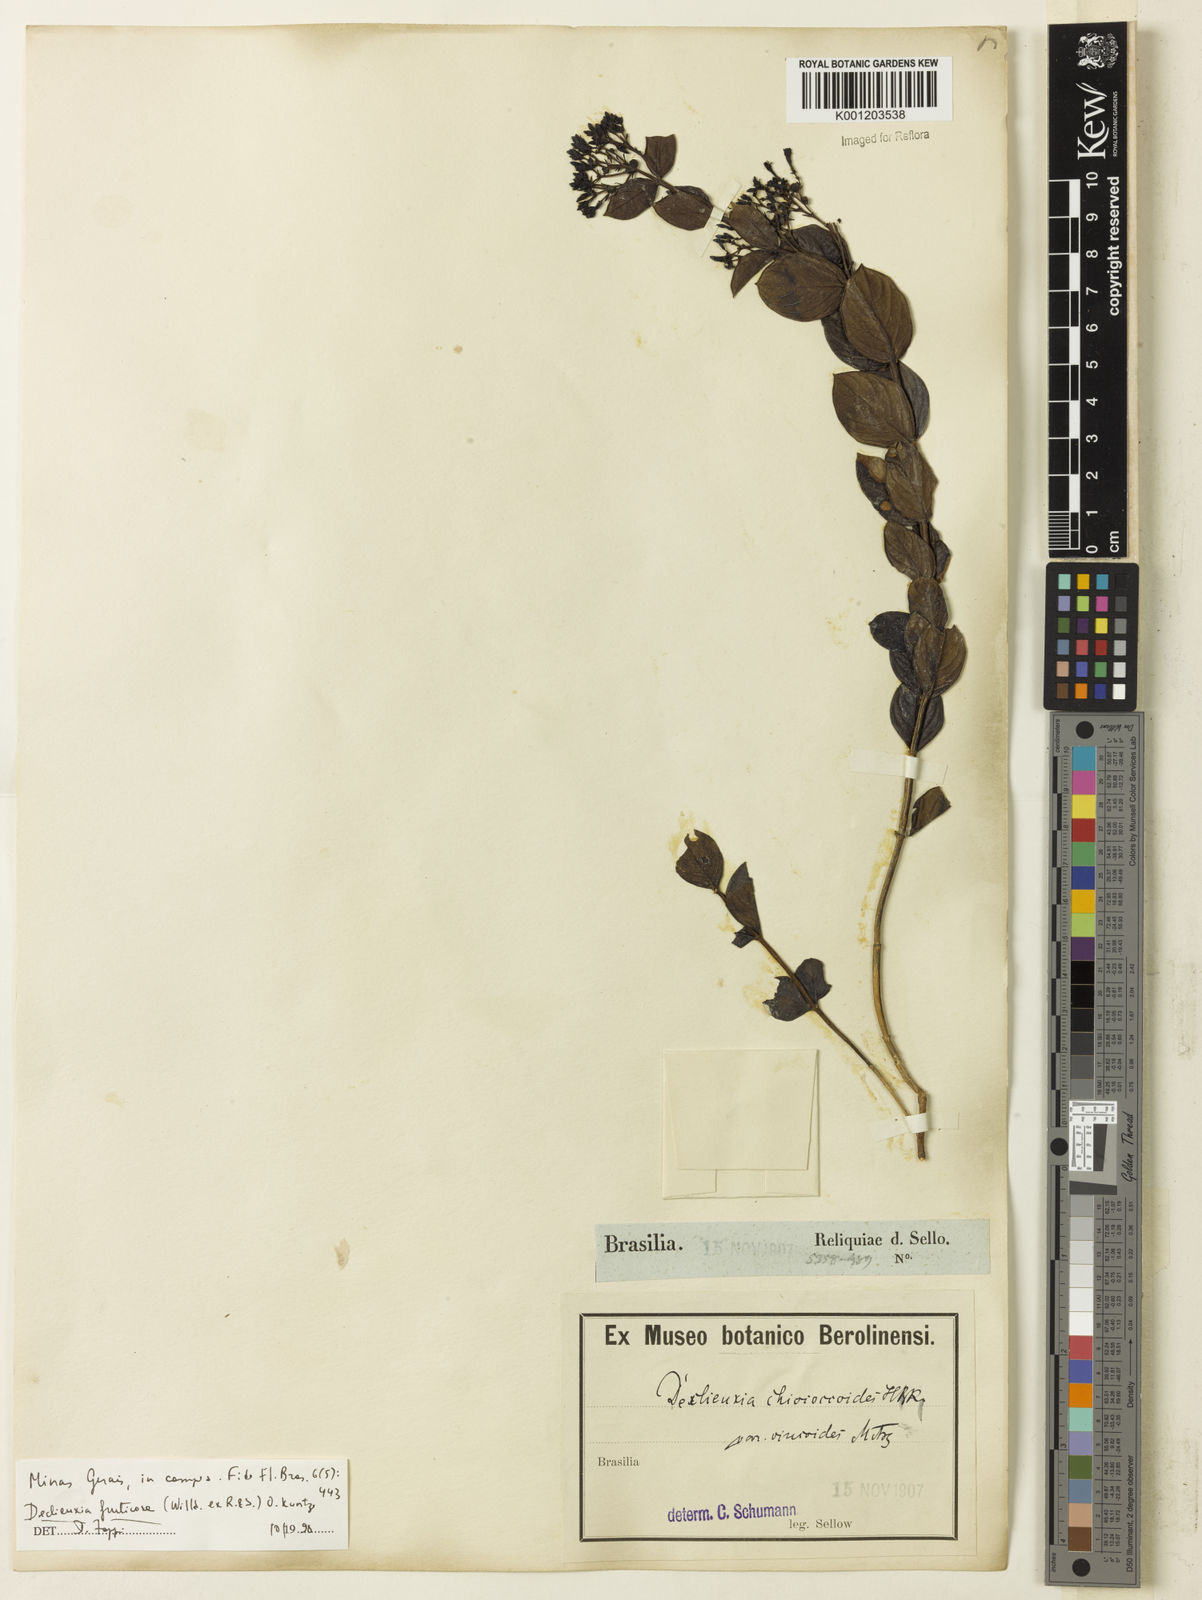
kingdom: Plantae
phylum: Tracheophyta
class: Magnoliopsida
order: Gentianales
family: Rubiaceae
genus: Declieuxia
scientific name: Declieuxia fruticosa
